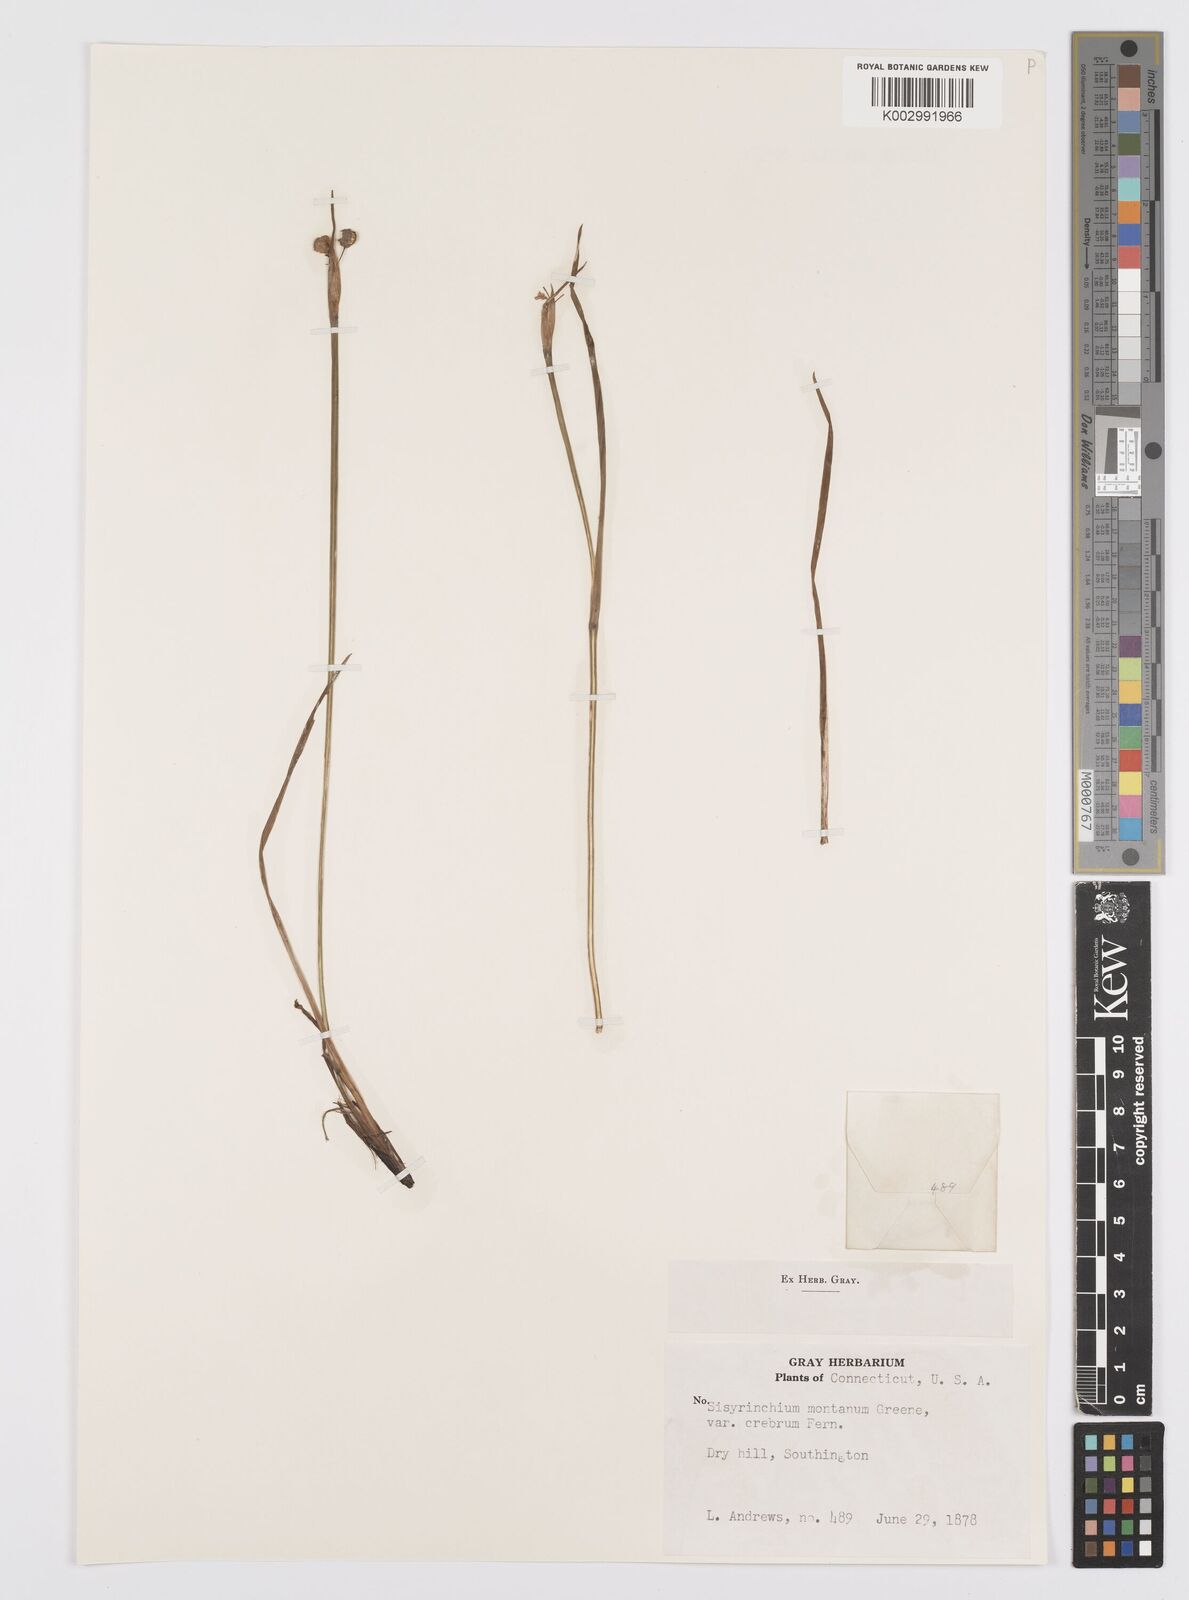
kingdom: Plantae
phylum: Tracheophyta
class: Liliopsida
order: Asparagales
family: Iridaceae
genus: Sisyrinchium
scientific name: Sisyrinchium montanum
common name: American blue-eyed-grass
